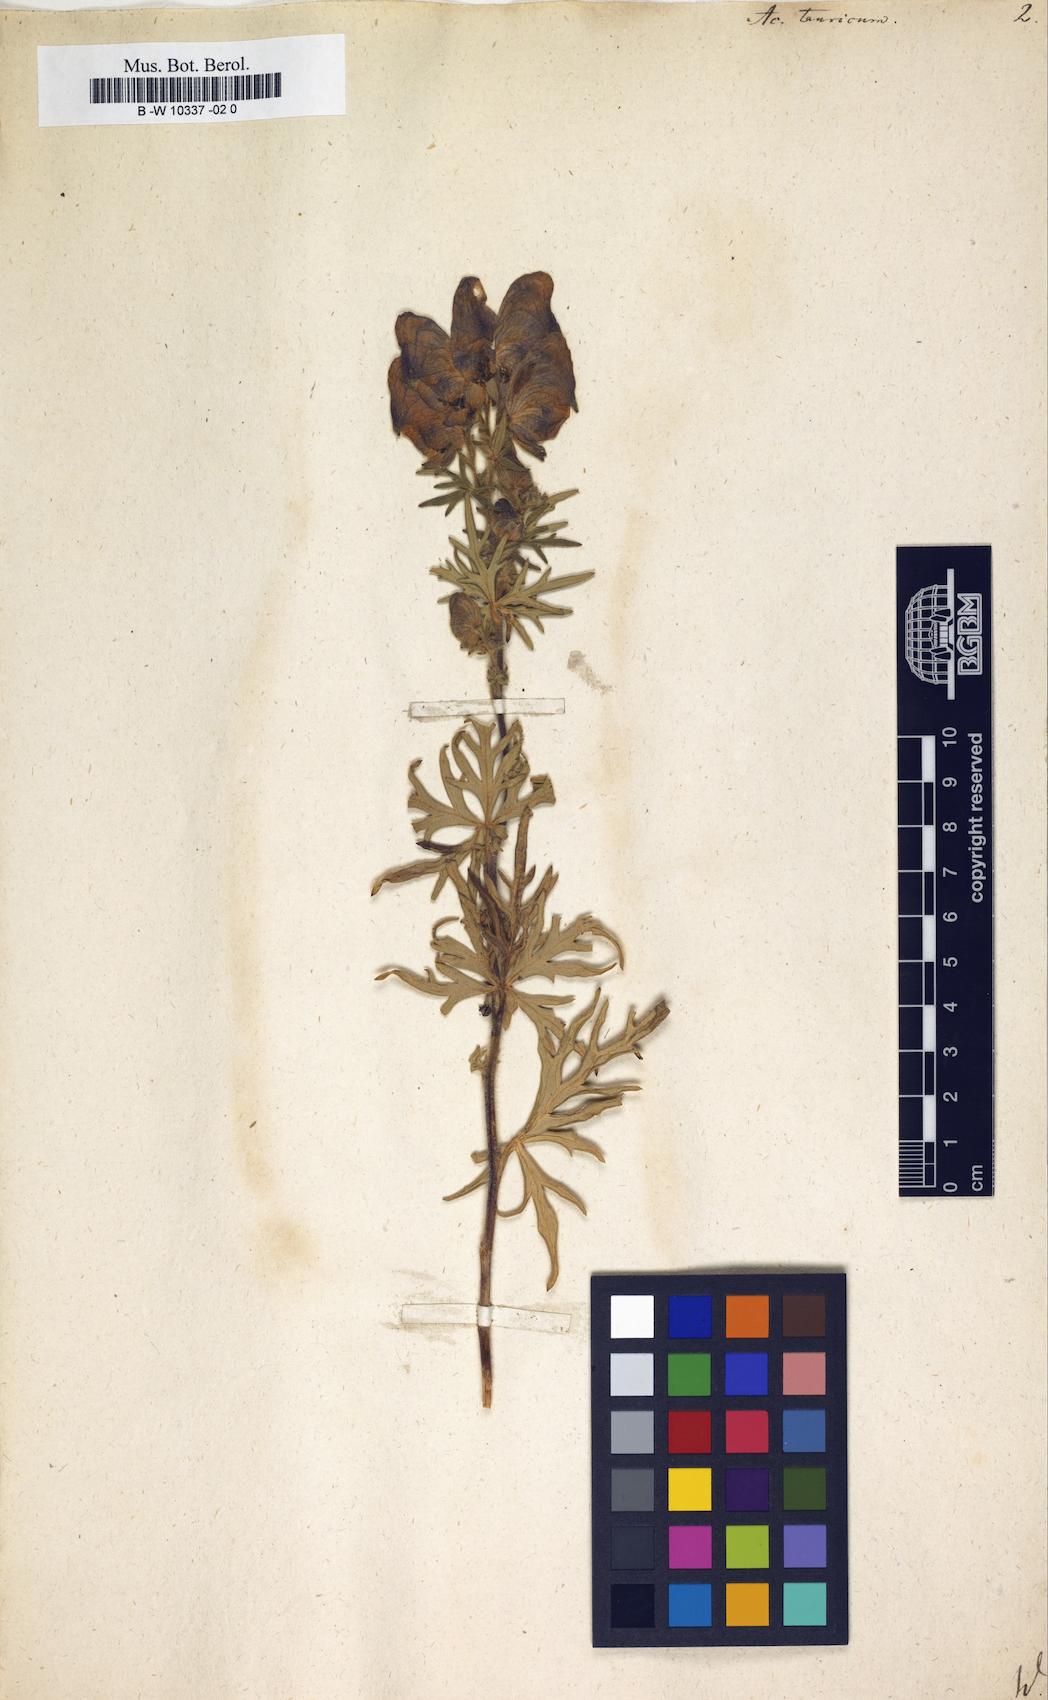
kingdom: Plantae
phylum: Tracheophyta
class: Magnoliopsida
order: Ranunculales
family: Ranunculaceae
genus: Aconitum
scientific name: Aconitum tauricum
